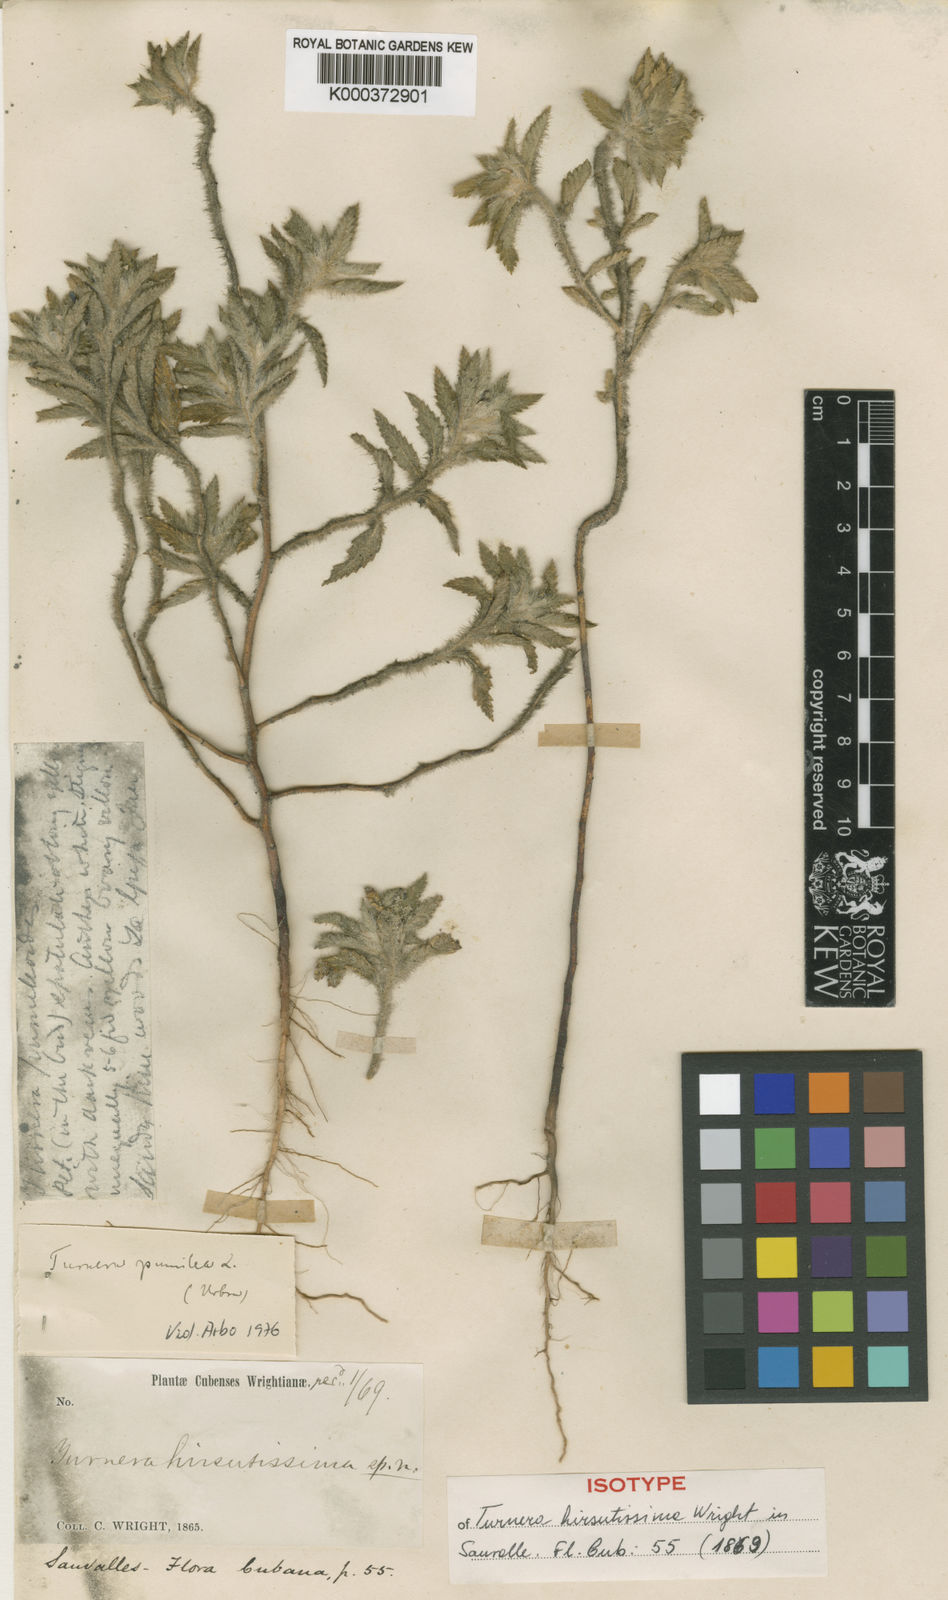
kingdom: Plantae
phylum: Tracheophyta
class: Magnoliopsida
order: Malpighiales
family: Turneraceae
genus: Turnera
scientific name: Turnera pumilea
